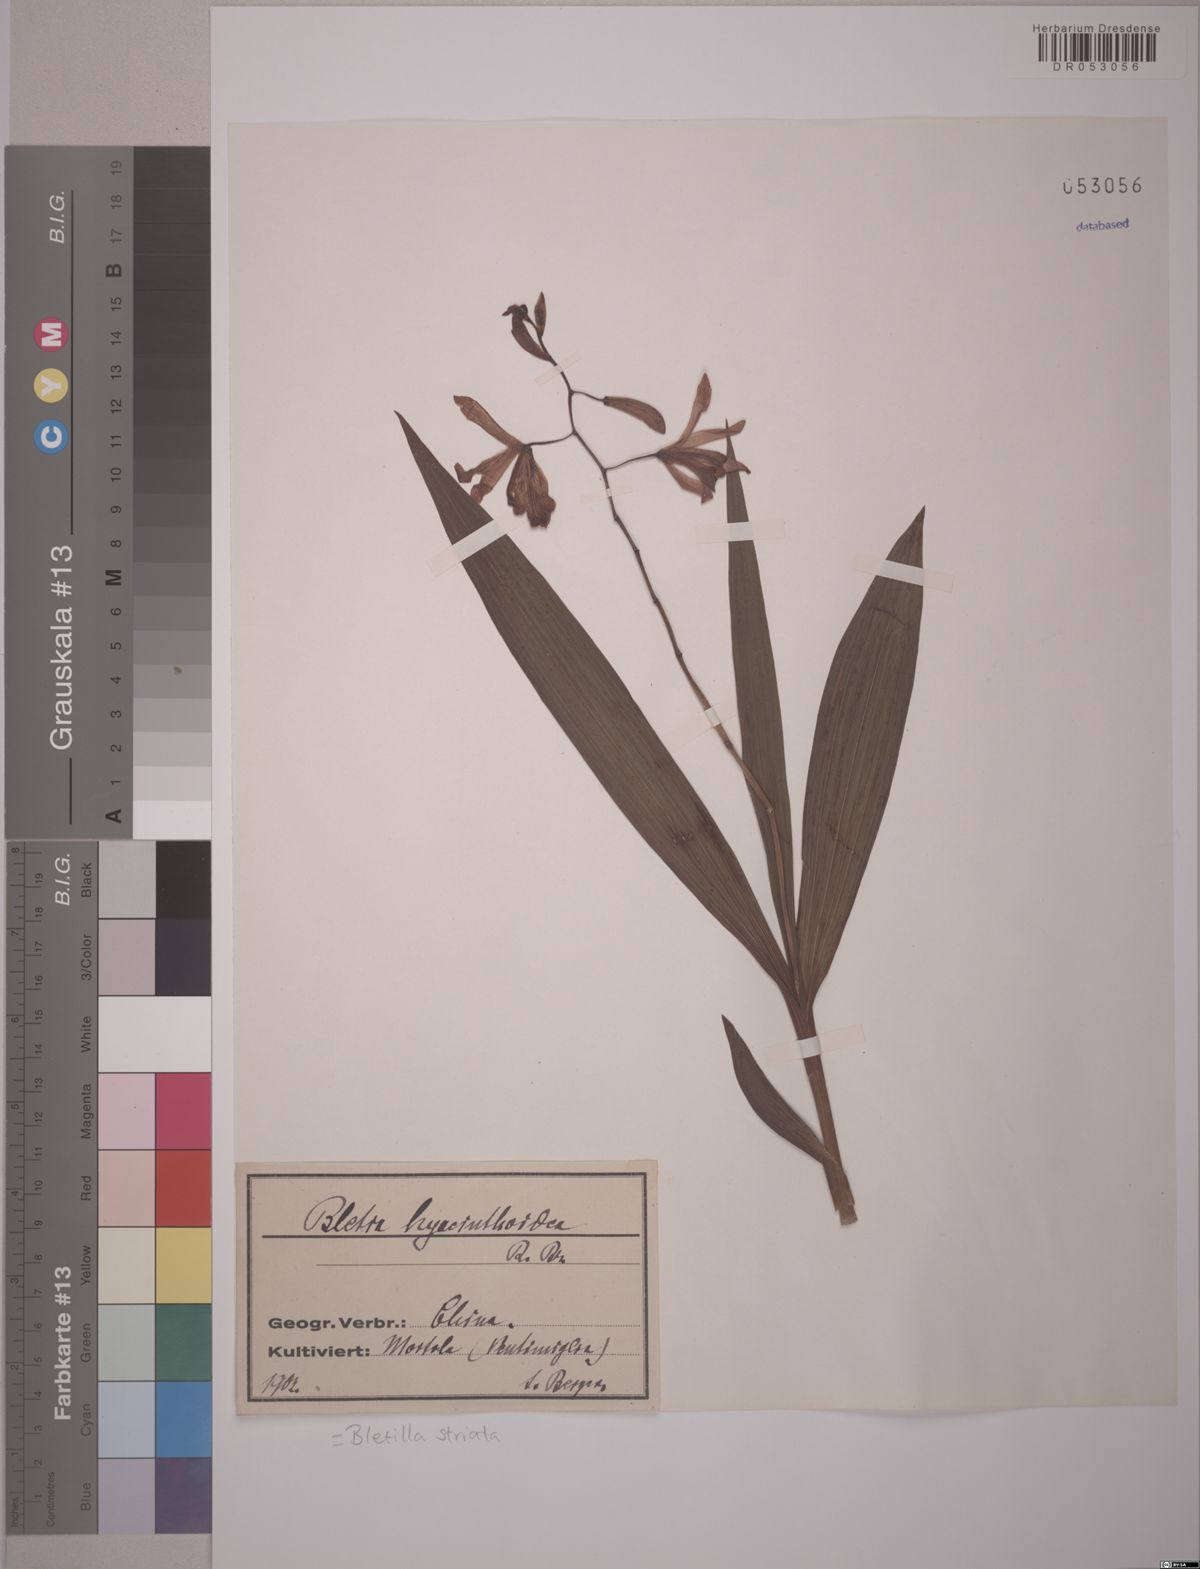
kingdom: Plantae
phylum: Tracheophyta
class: Liliopsida
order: Asparagales
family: Orchidaceae
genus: Bletilla
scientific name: Bletilla striata
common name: Hyacinth orchid
